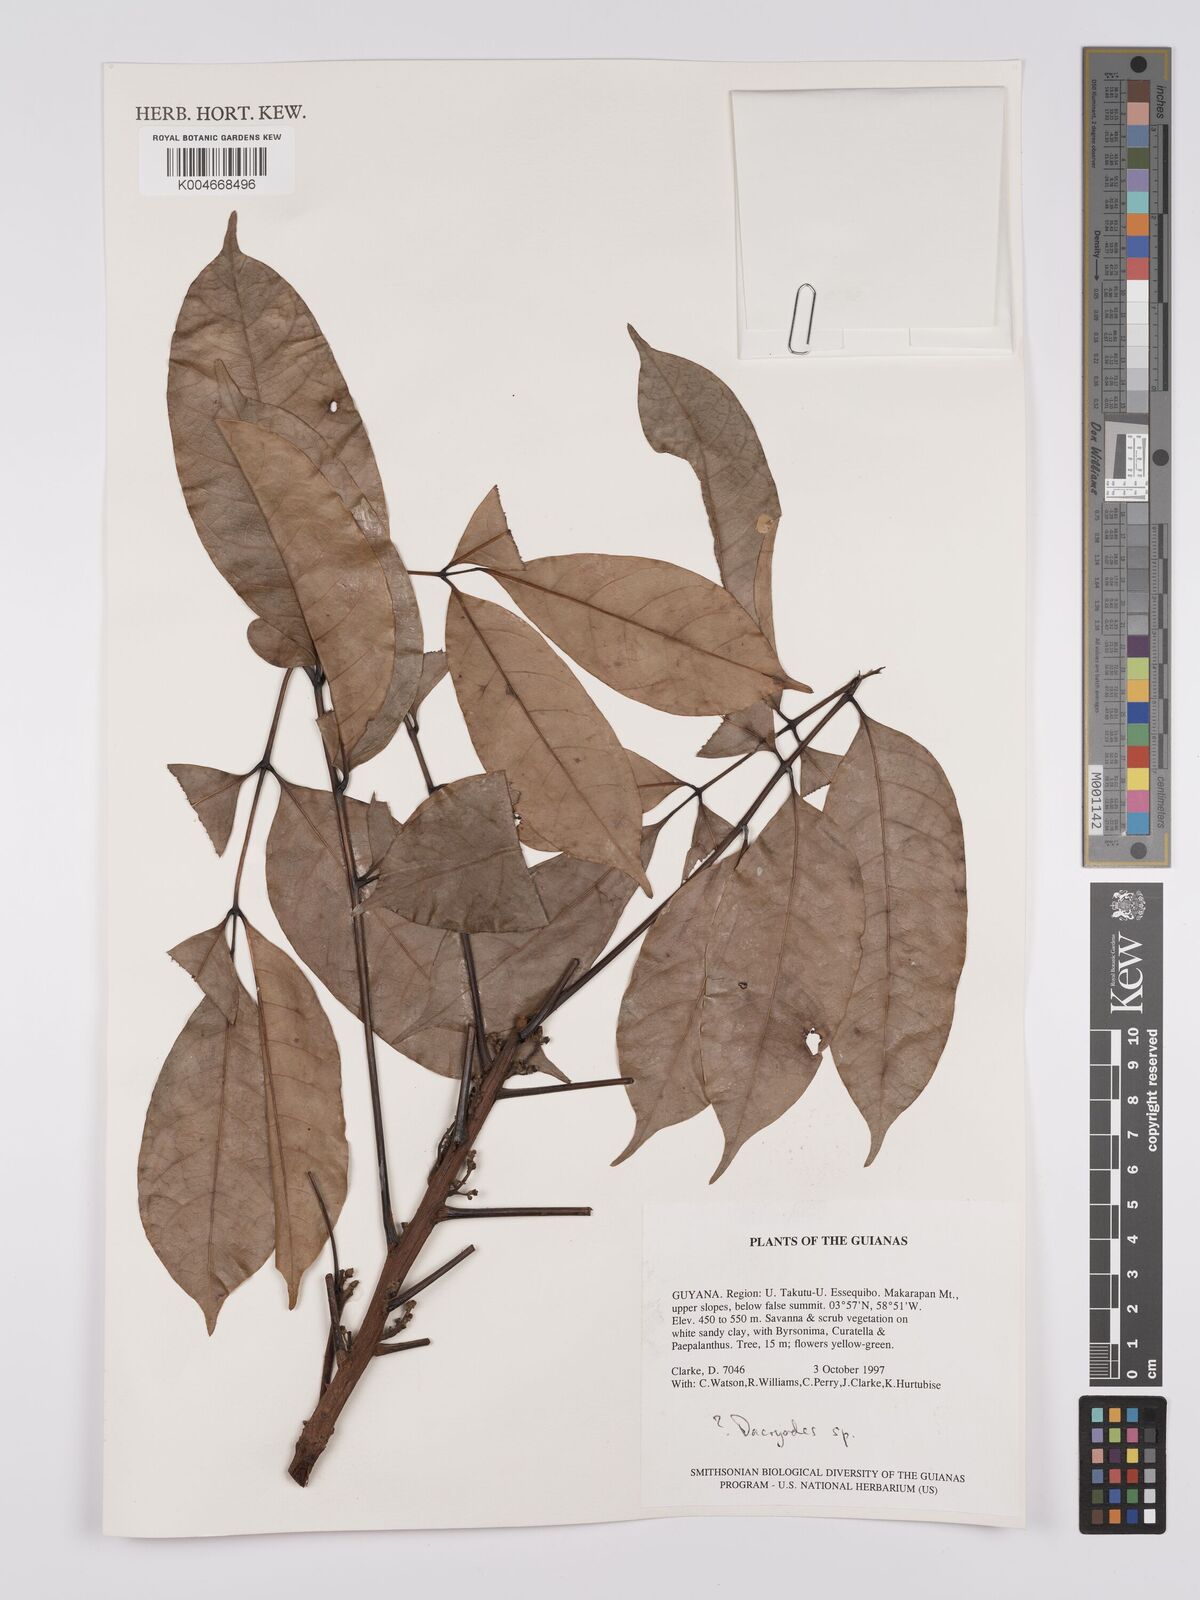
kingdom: Plantae
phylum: Tracheophyta
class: Magnoliopsida
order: Sapindales
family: Burseraceae
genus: Dacryodes
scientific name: Dacryodes
